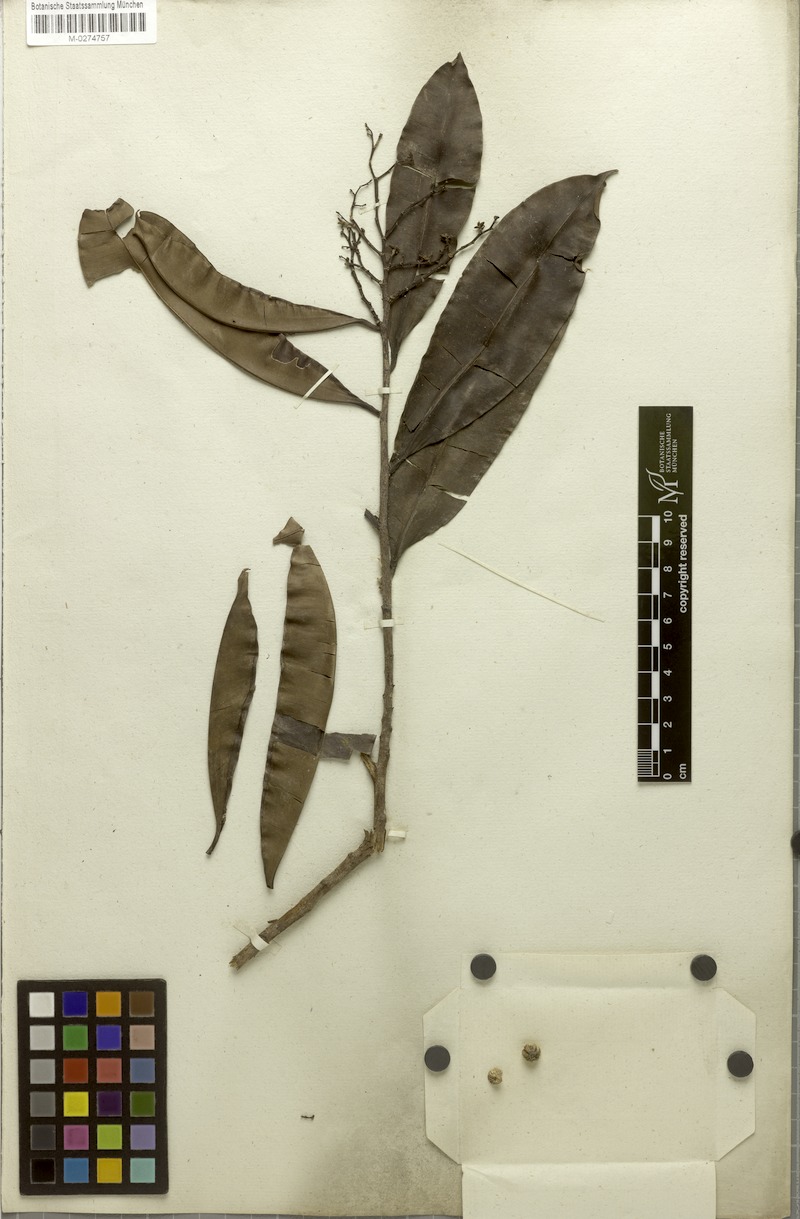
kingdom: Plantae
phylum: Tracheophyta
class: Magnoliopsida
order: Malpighiales
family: Linaceae
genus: Roucheria
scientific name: Roucheria
